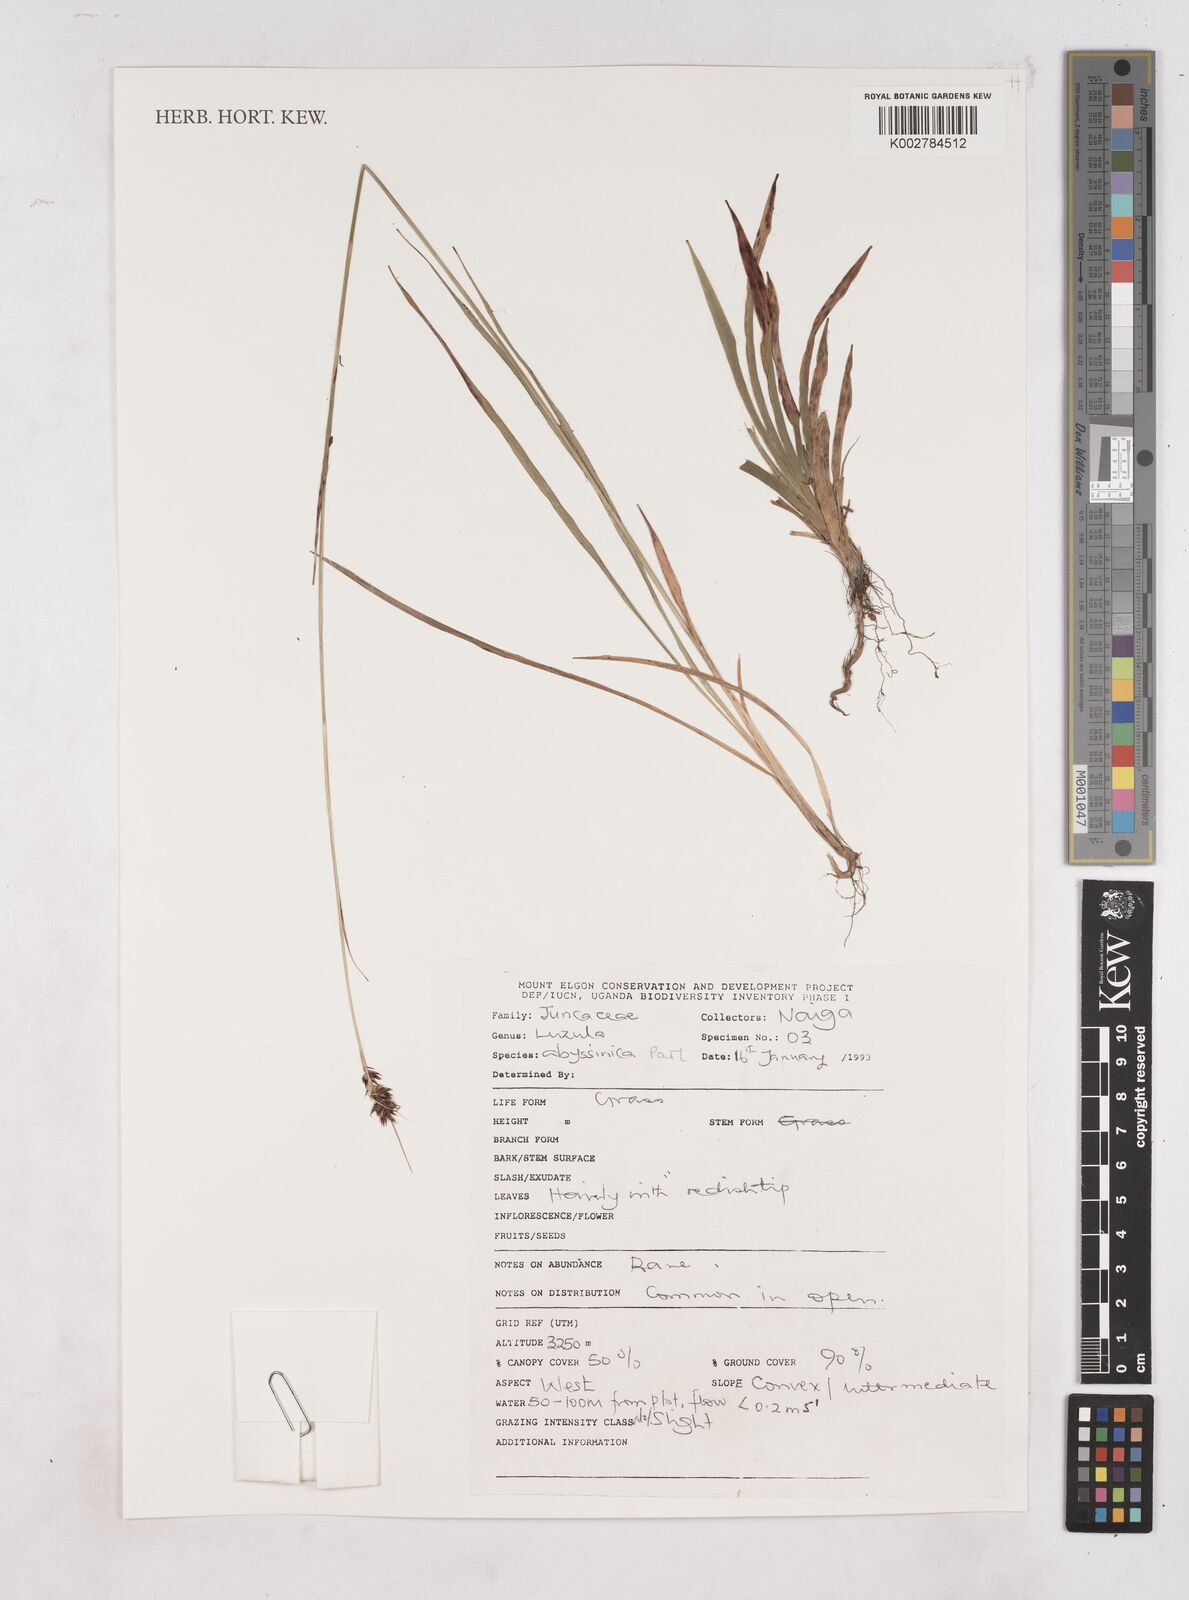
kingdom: Plantae
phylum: Tracheophyta
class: Liliopsida
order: Poales
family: Juncaceae
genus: Luzula
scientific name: Luzula abyssinica
